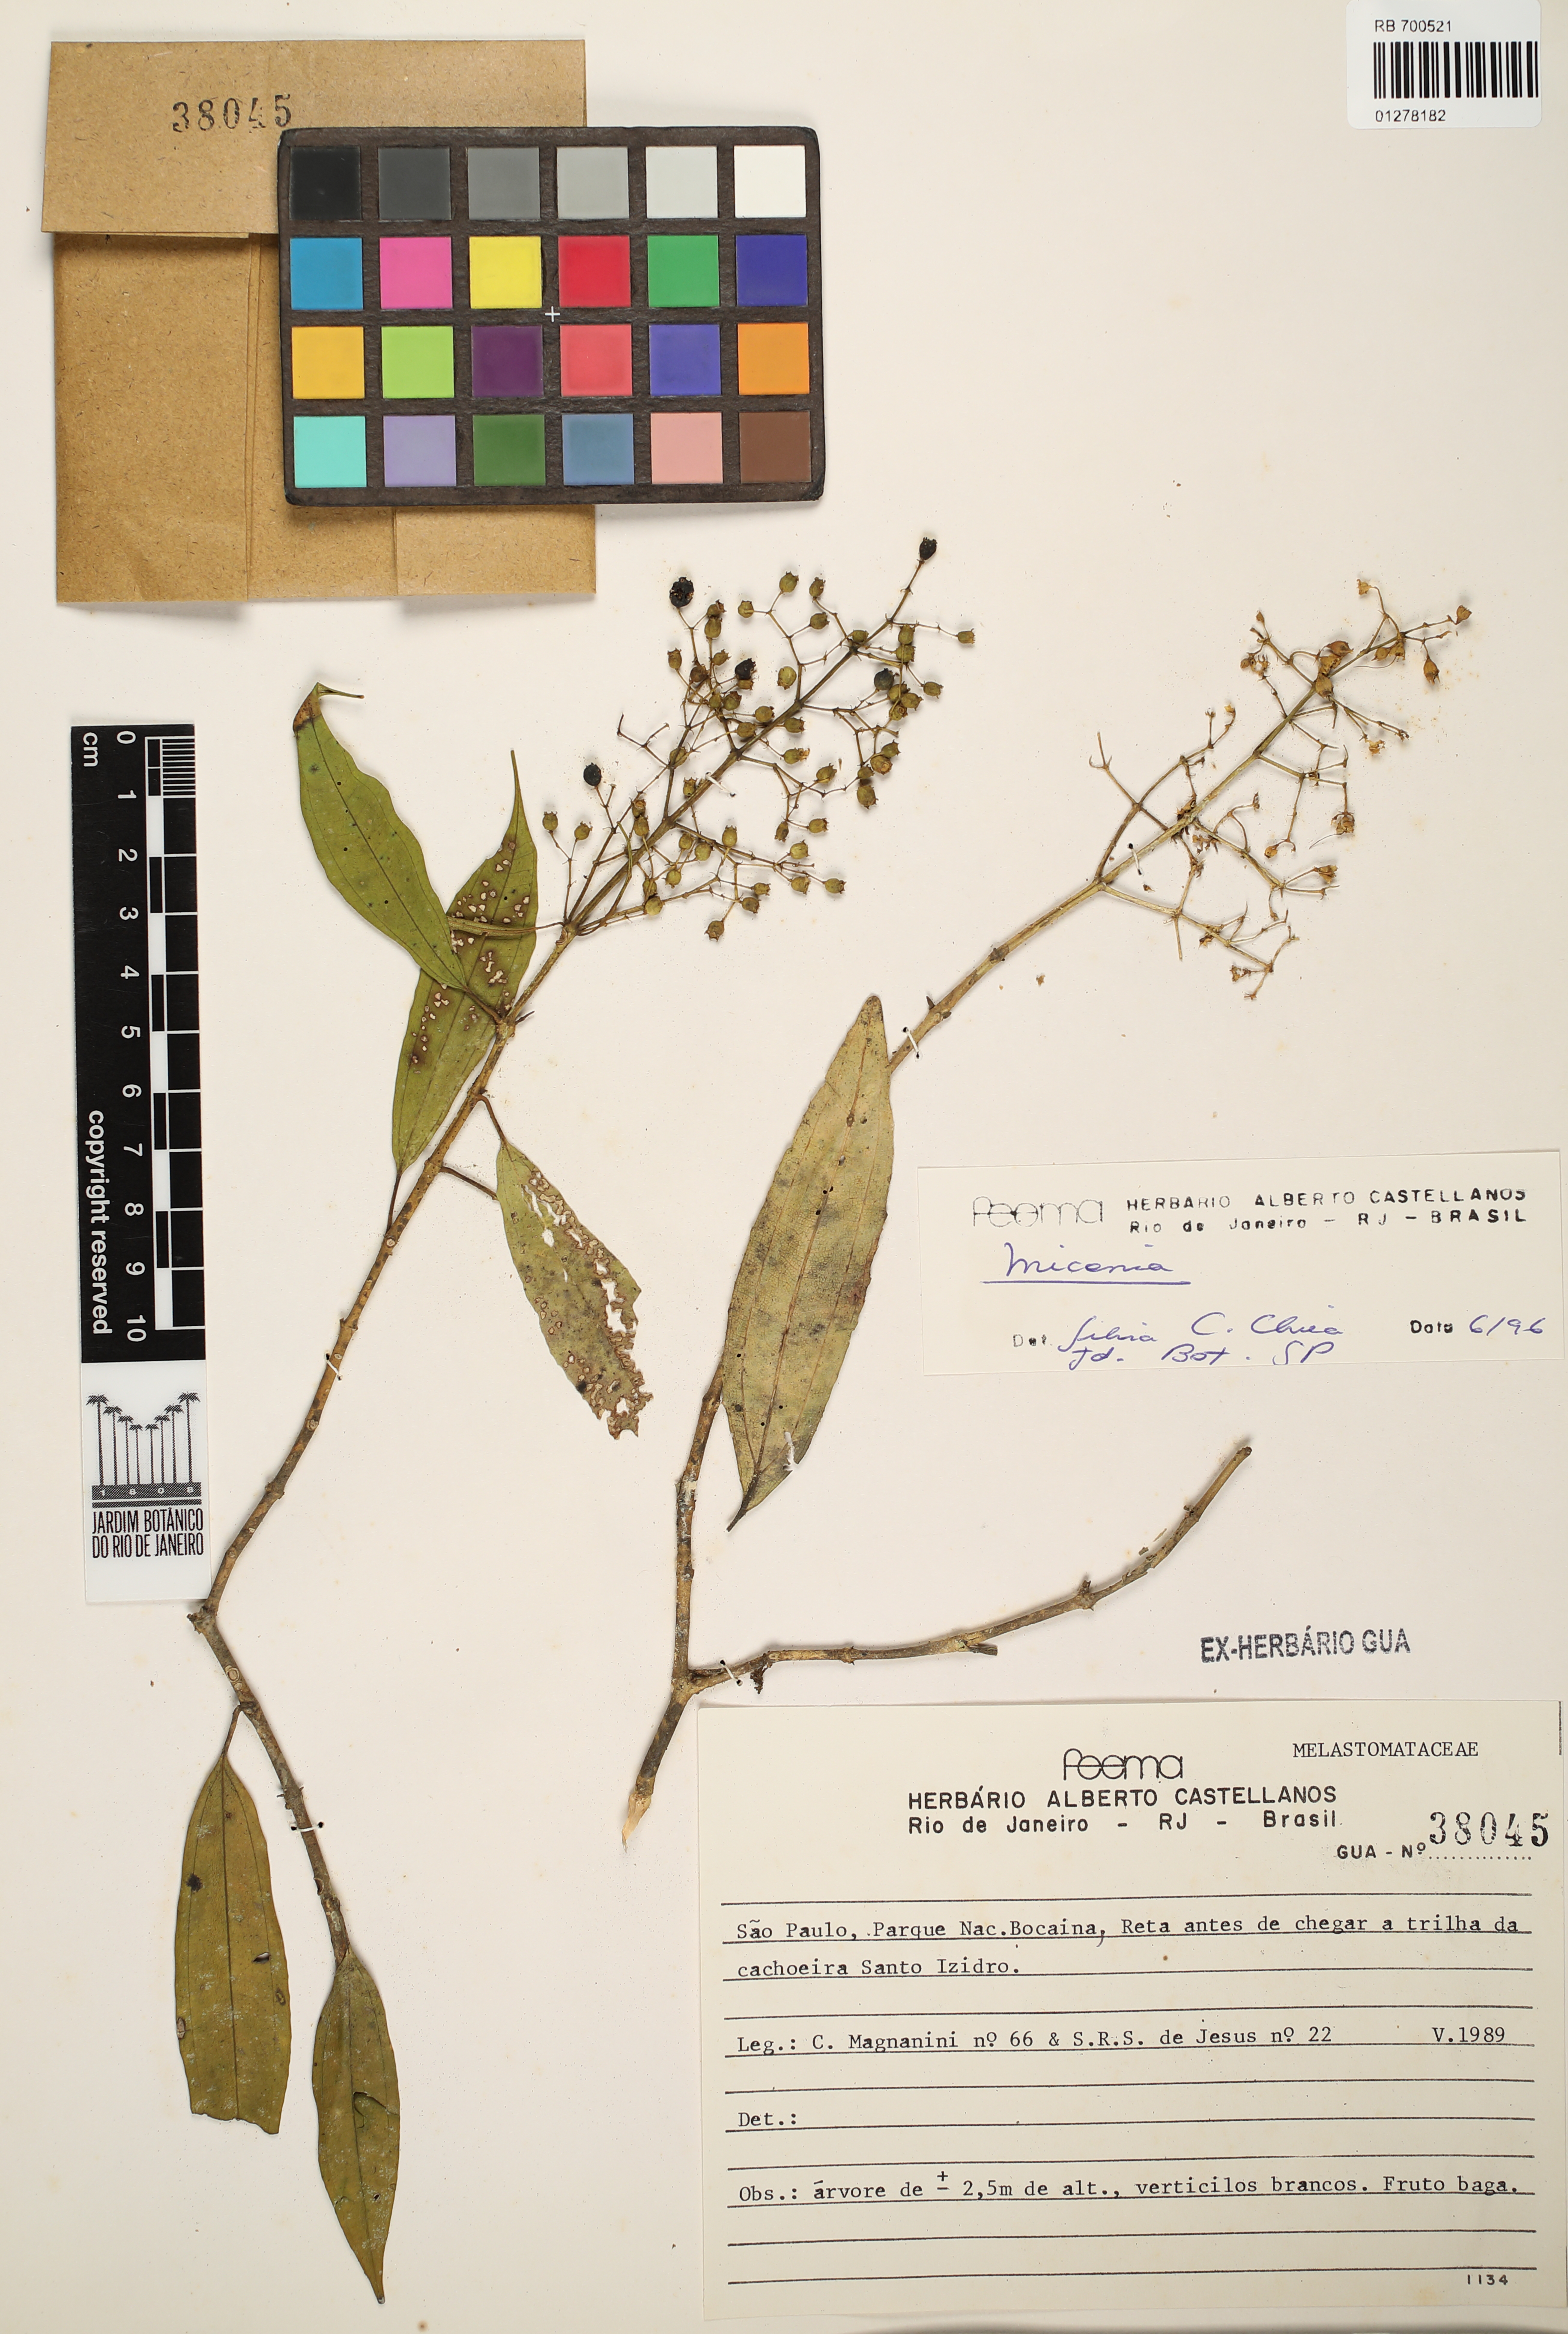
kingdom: Plantae
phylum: Tracheophyta
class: Magnoliopsida
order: Myrtales
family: Melastomataceae
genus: Miconia
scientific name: Miconia
